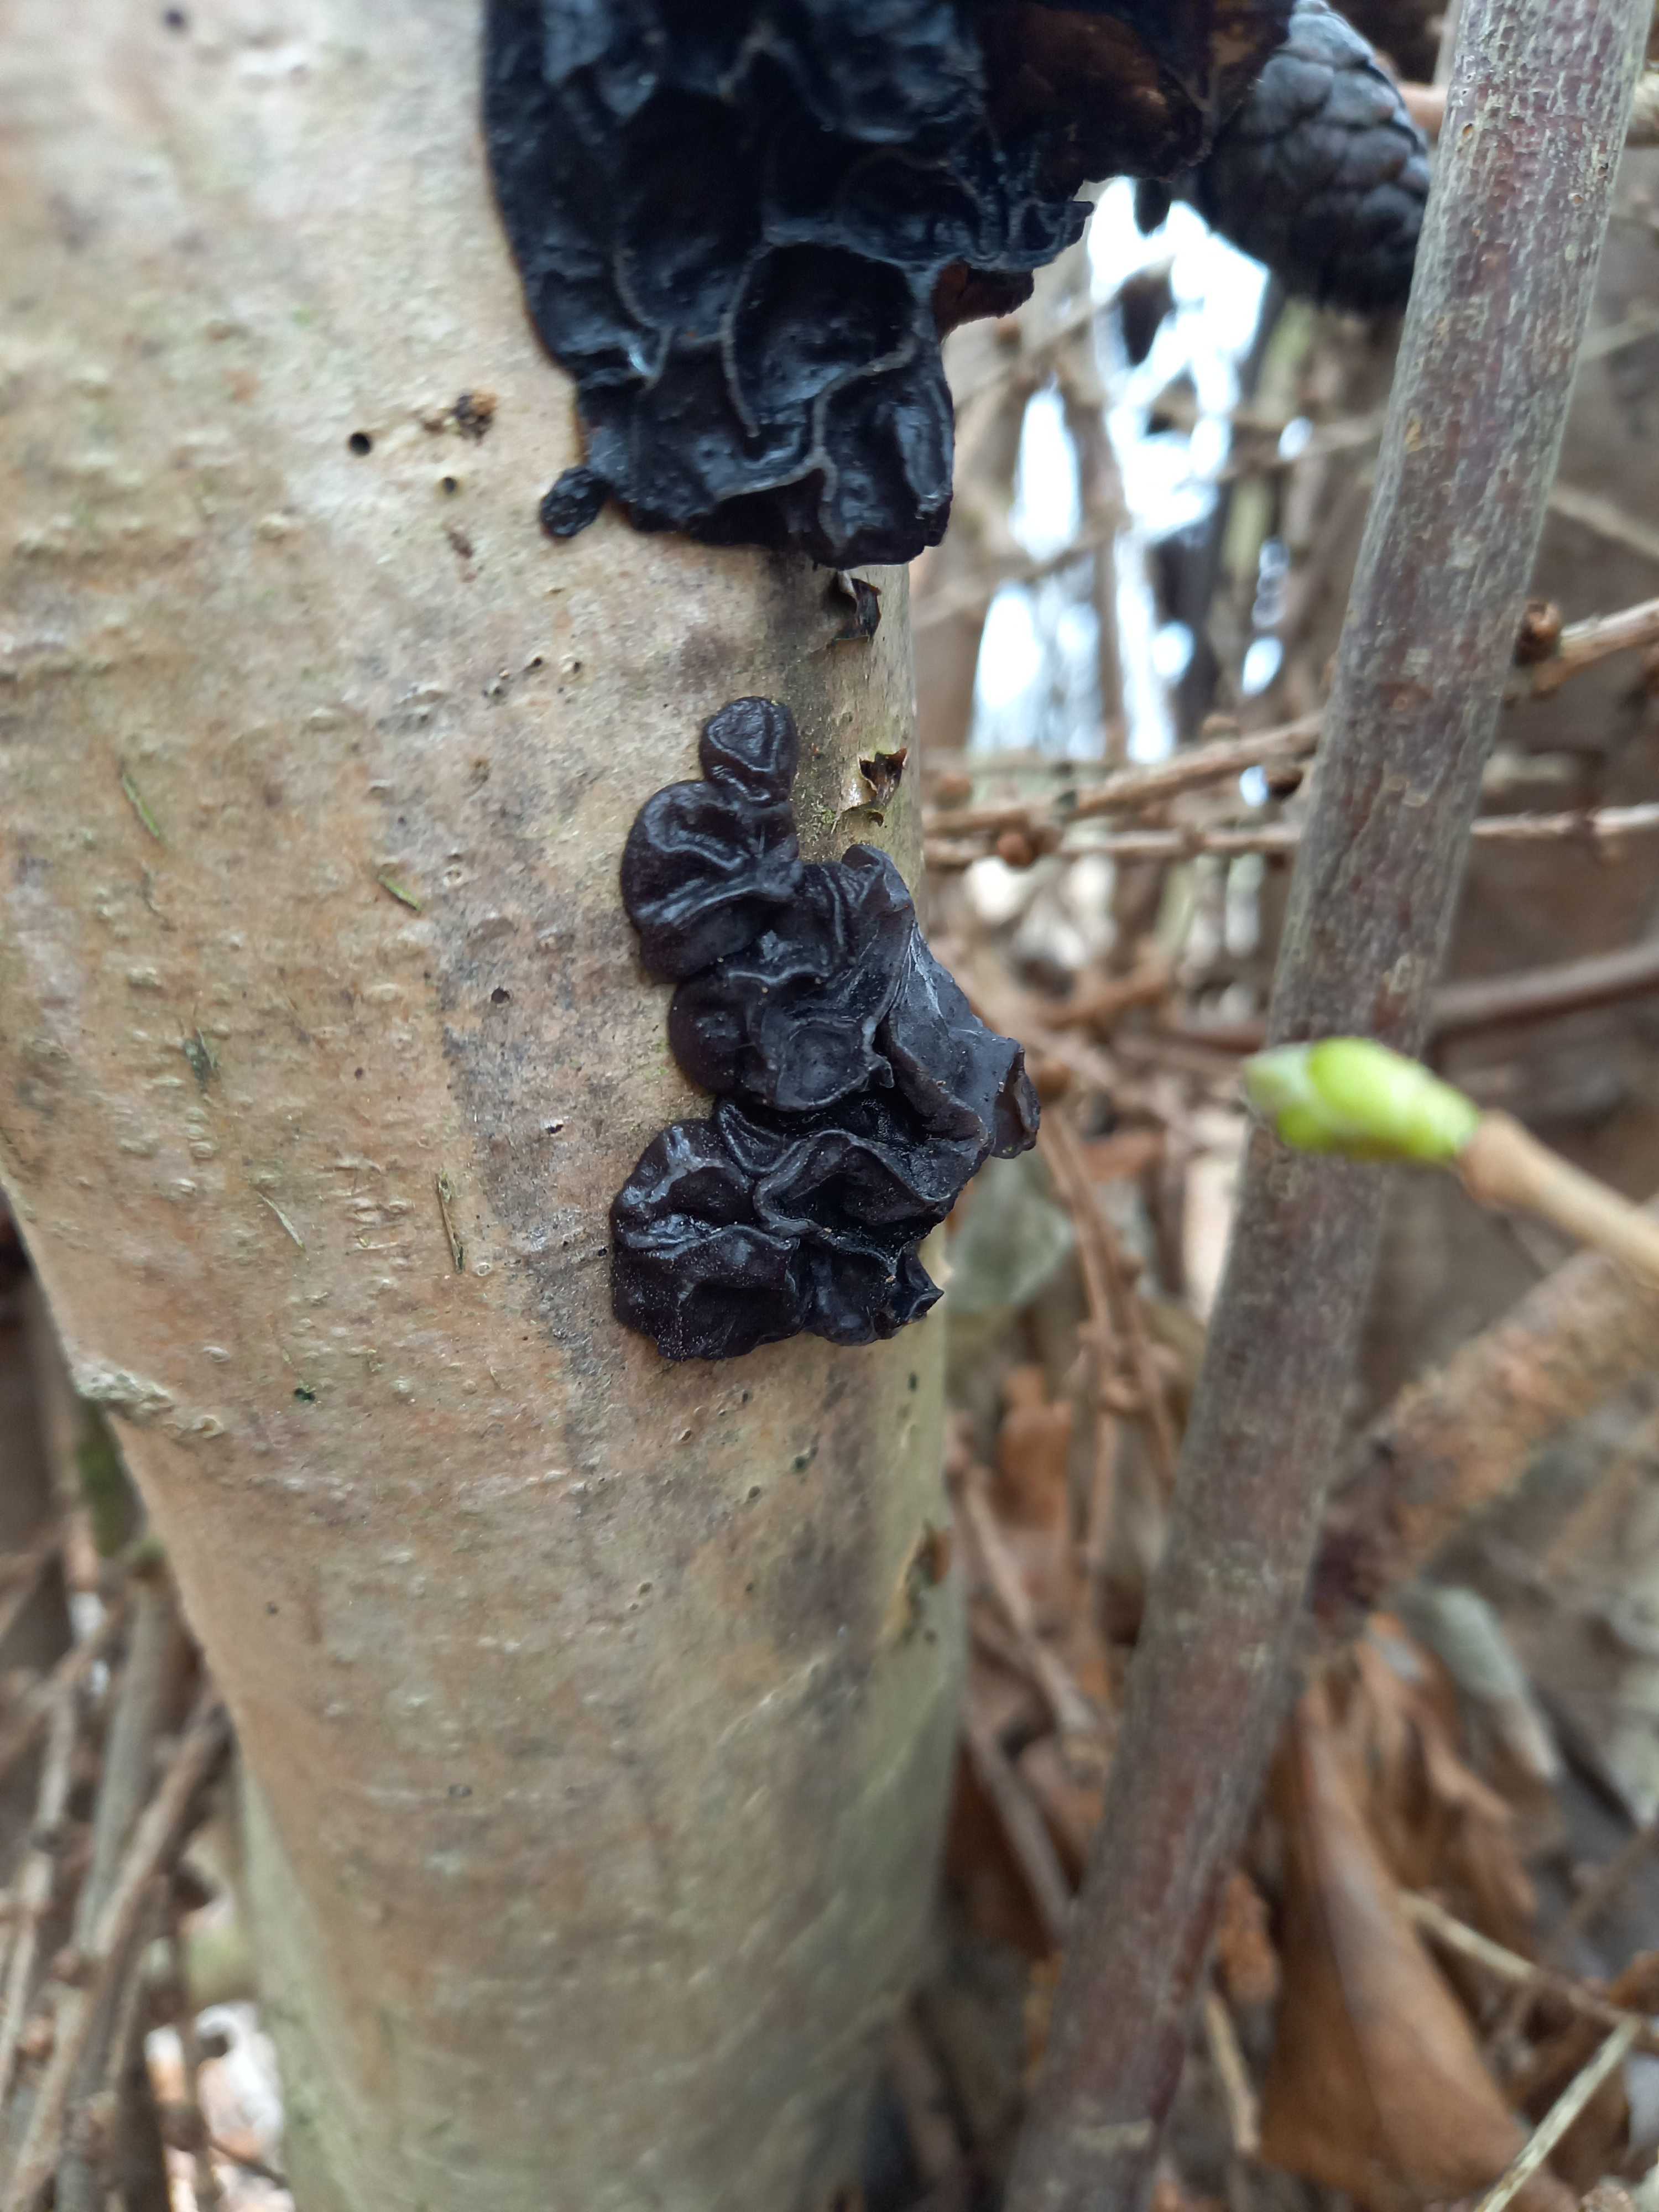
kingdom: Fungi
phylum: Basidiomycota
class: Agaricomycetes
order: Auriculariales
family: Auriculariaceae
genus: Exidia
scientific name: Exidia nigricans
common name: almindelig bævretop
